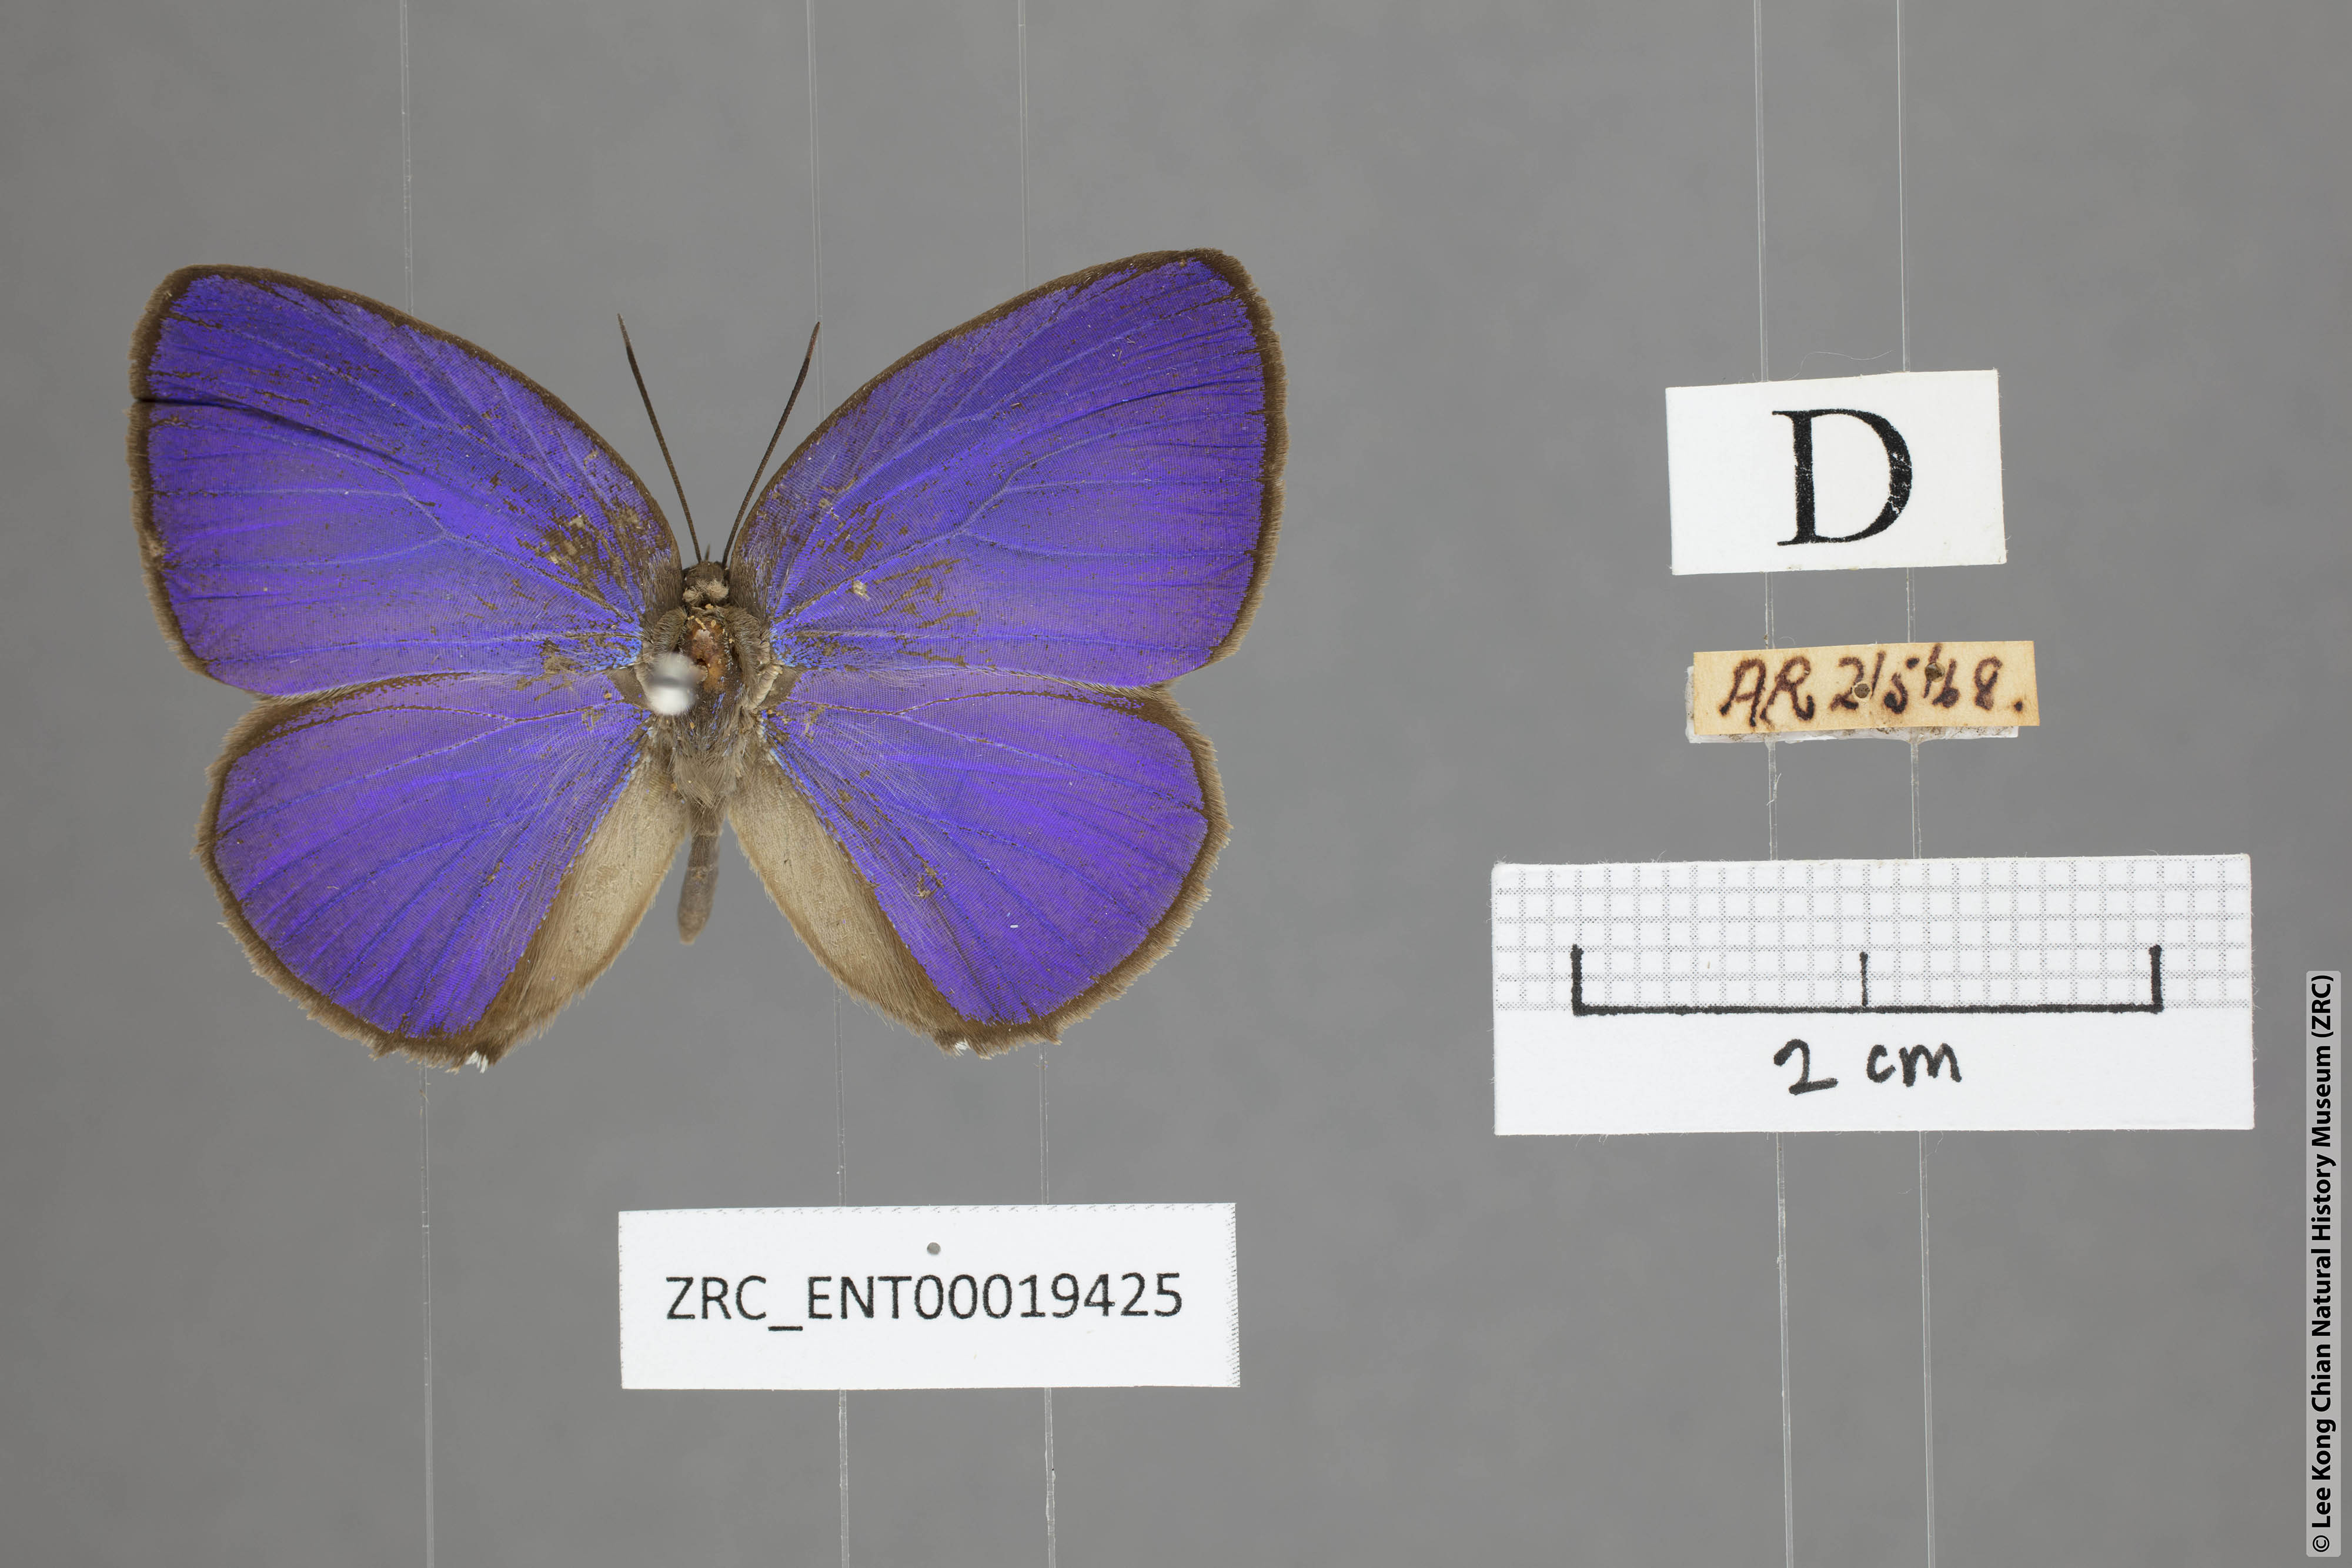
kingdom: Animalia
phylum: Arthropoda
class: Insecta
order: Lepidoptera
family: Lycaenidae
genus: Arhopala
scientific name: Arhopala epimuta
